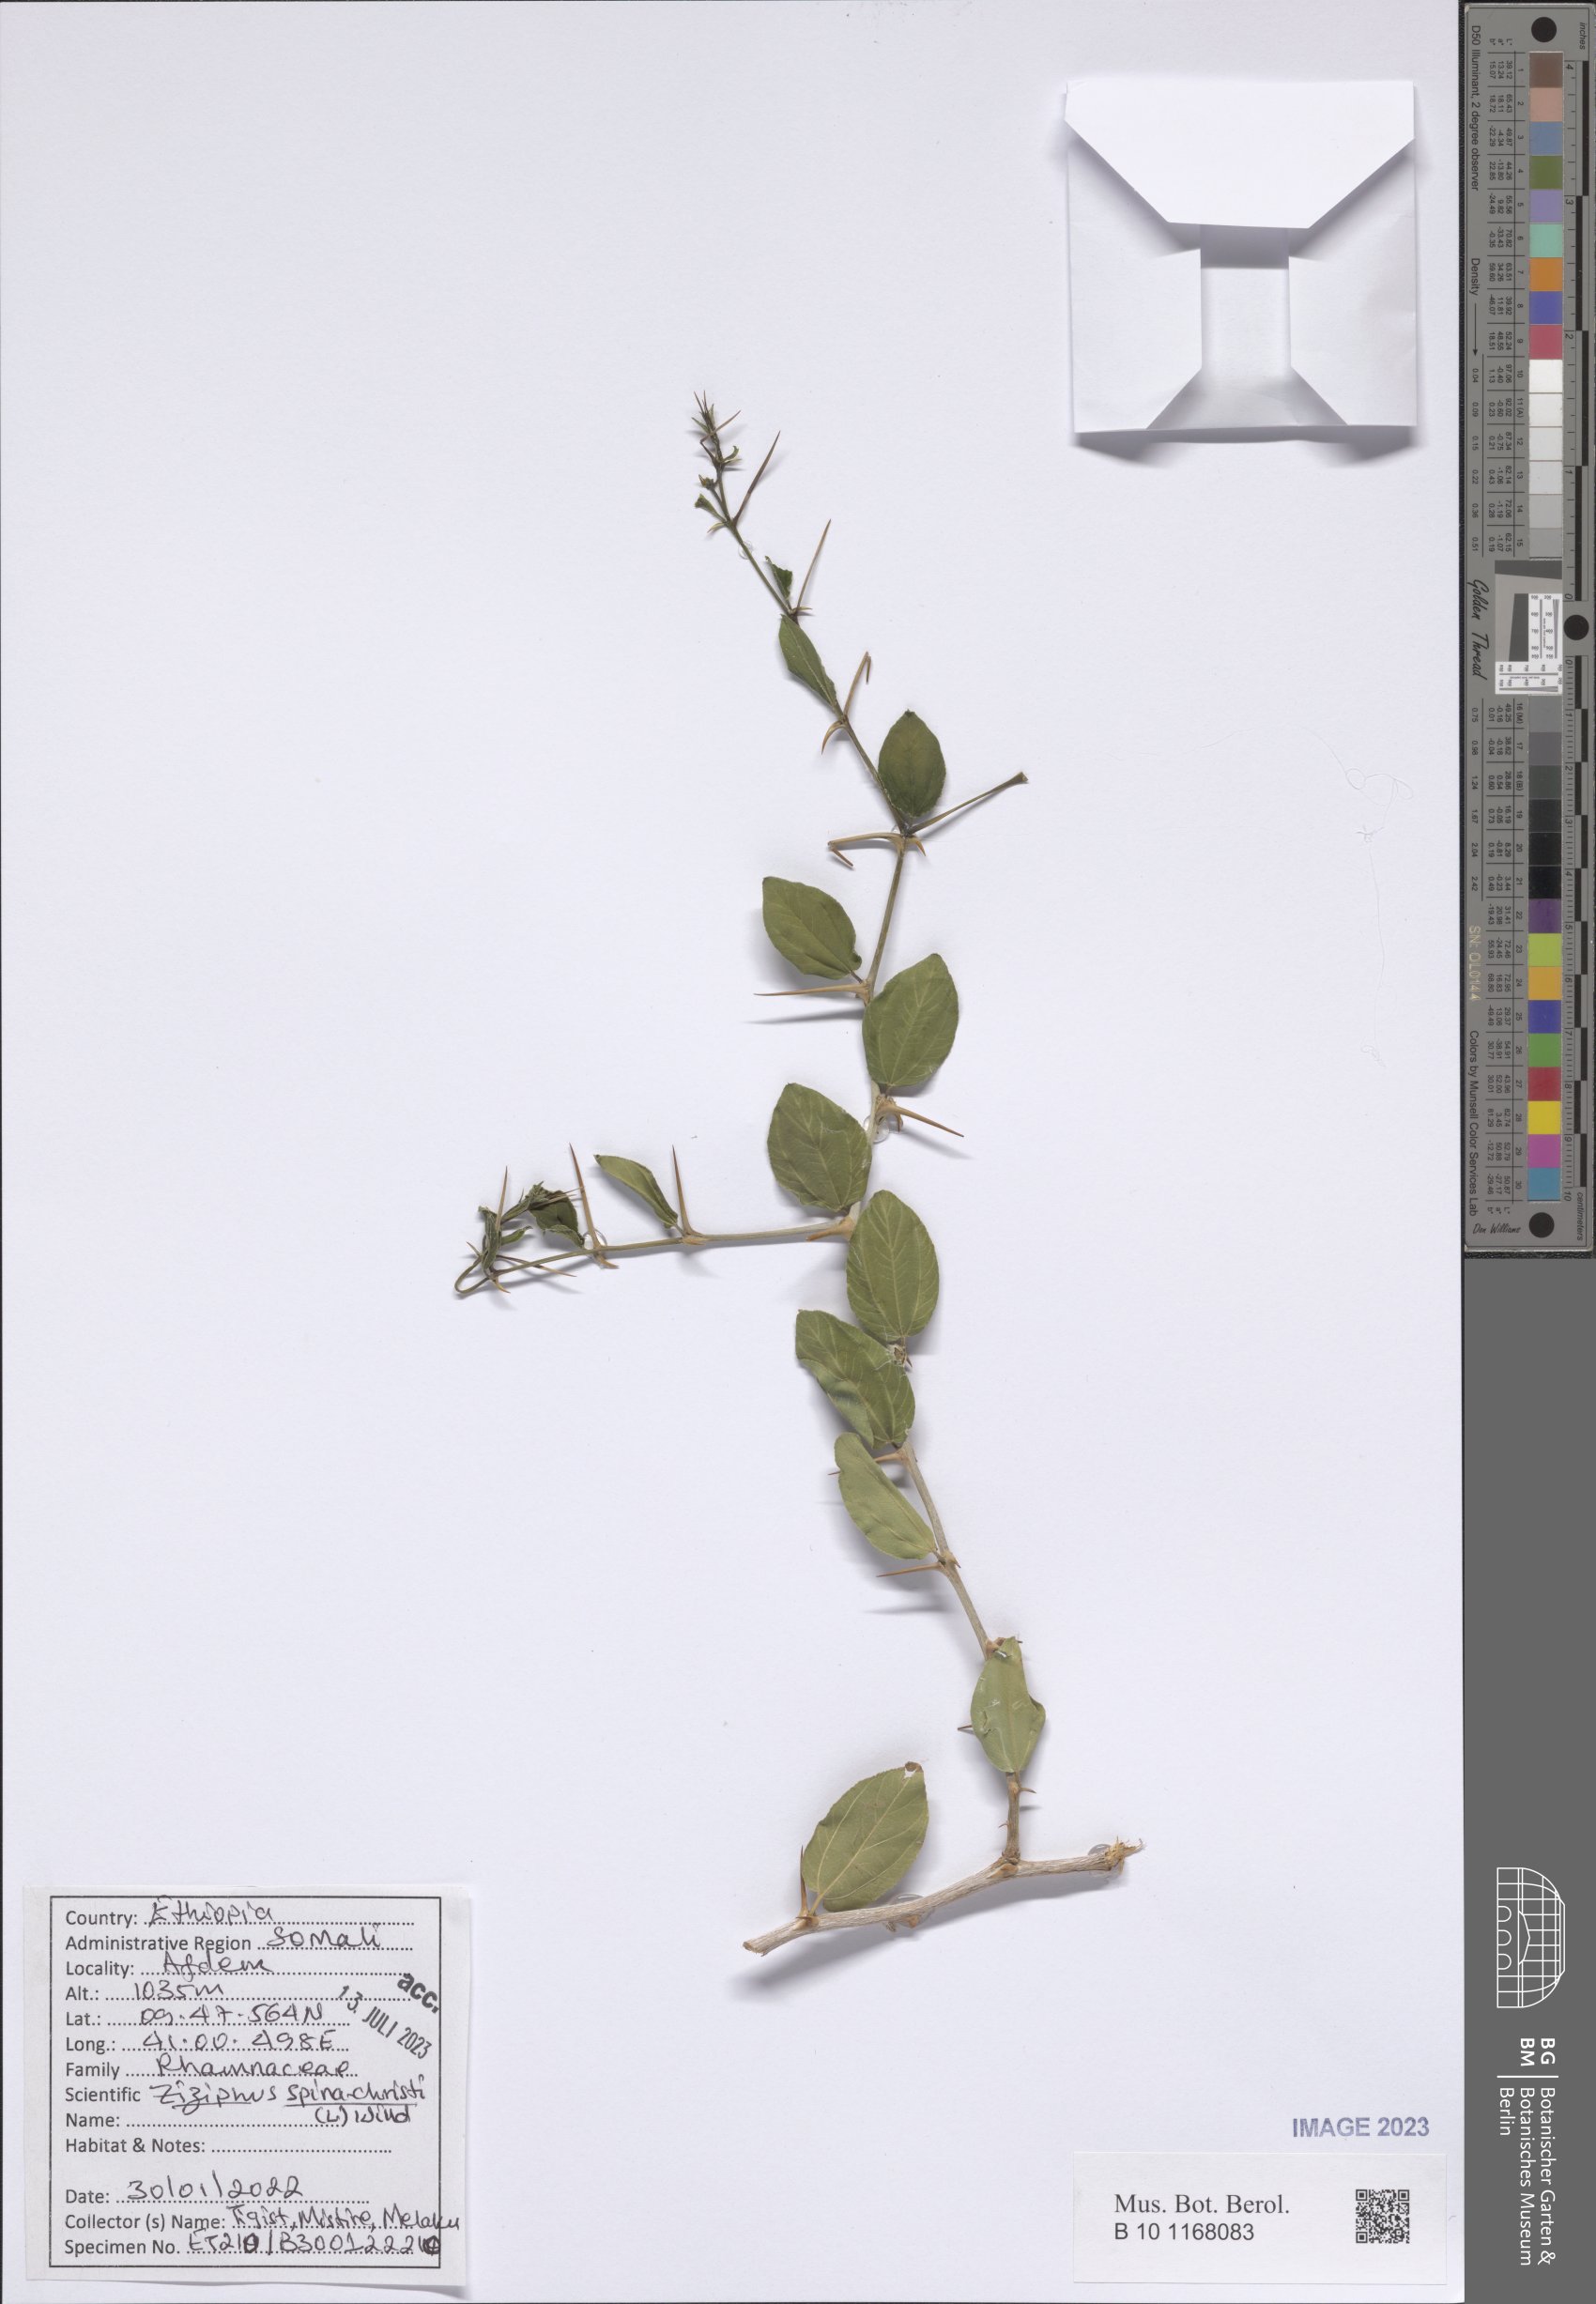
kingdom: Plantae
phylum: Tracheophyta
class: Magnoliopsida
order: Rosales
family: Rhamnaceae
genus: Ziziphus
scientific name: Ziziphus spina-christi
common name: Syrian christ-thorn
